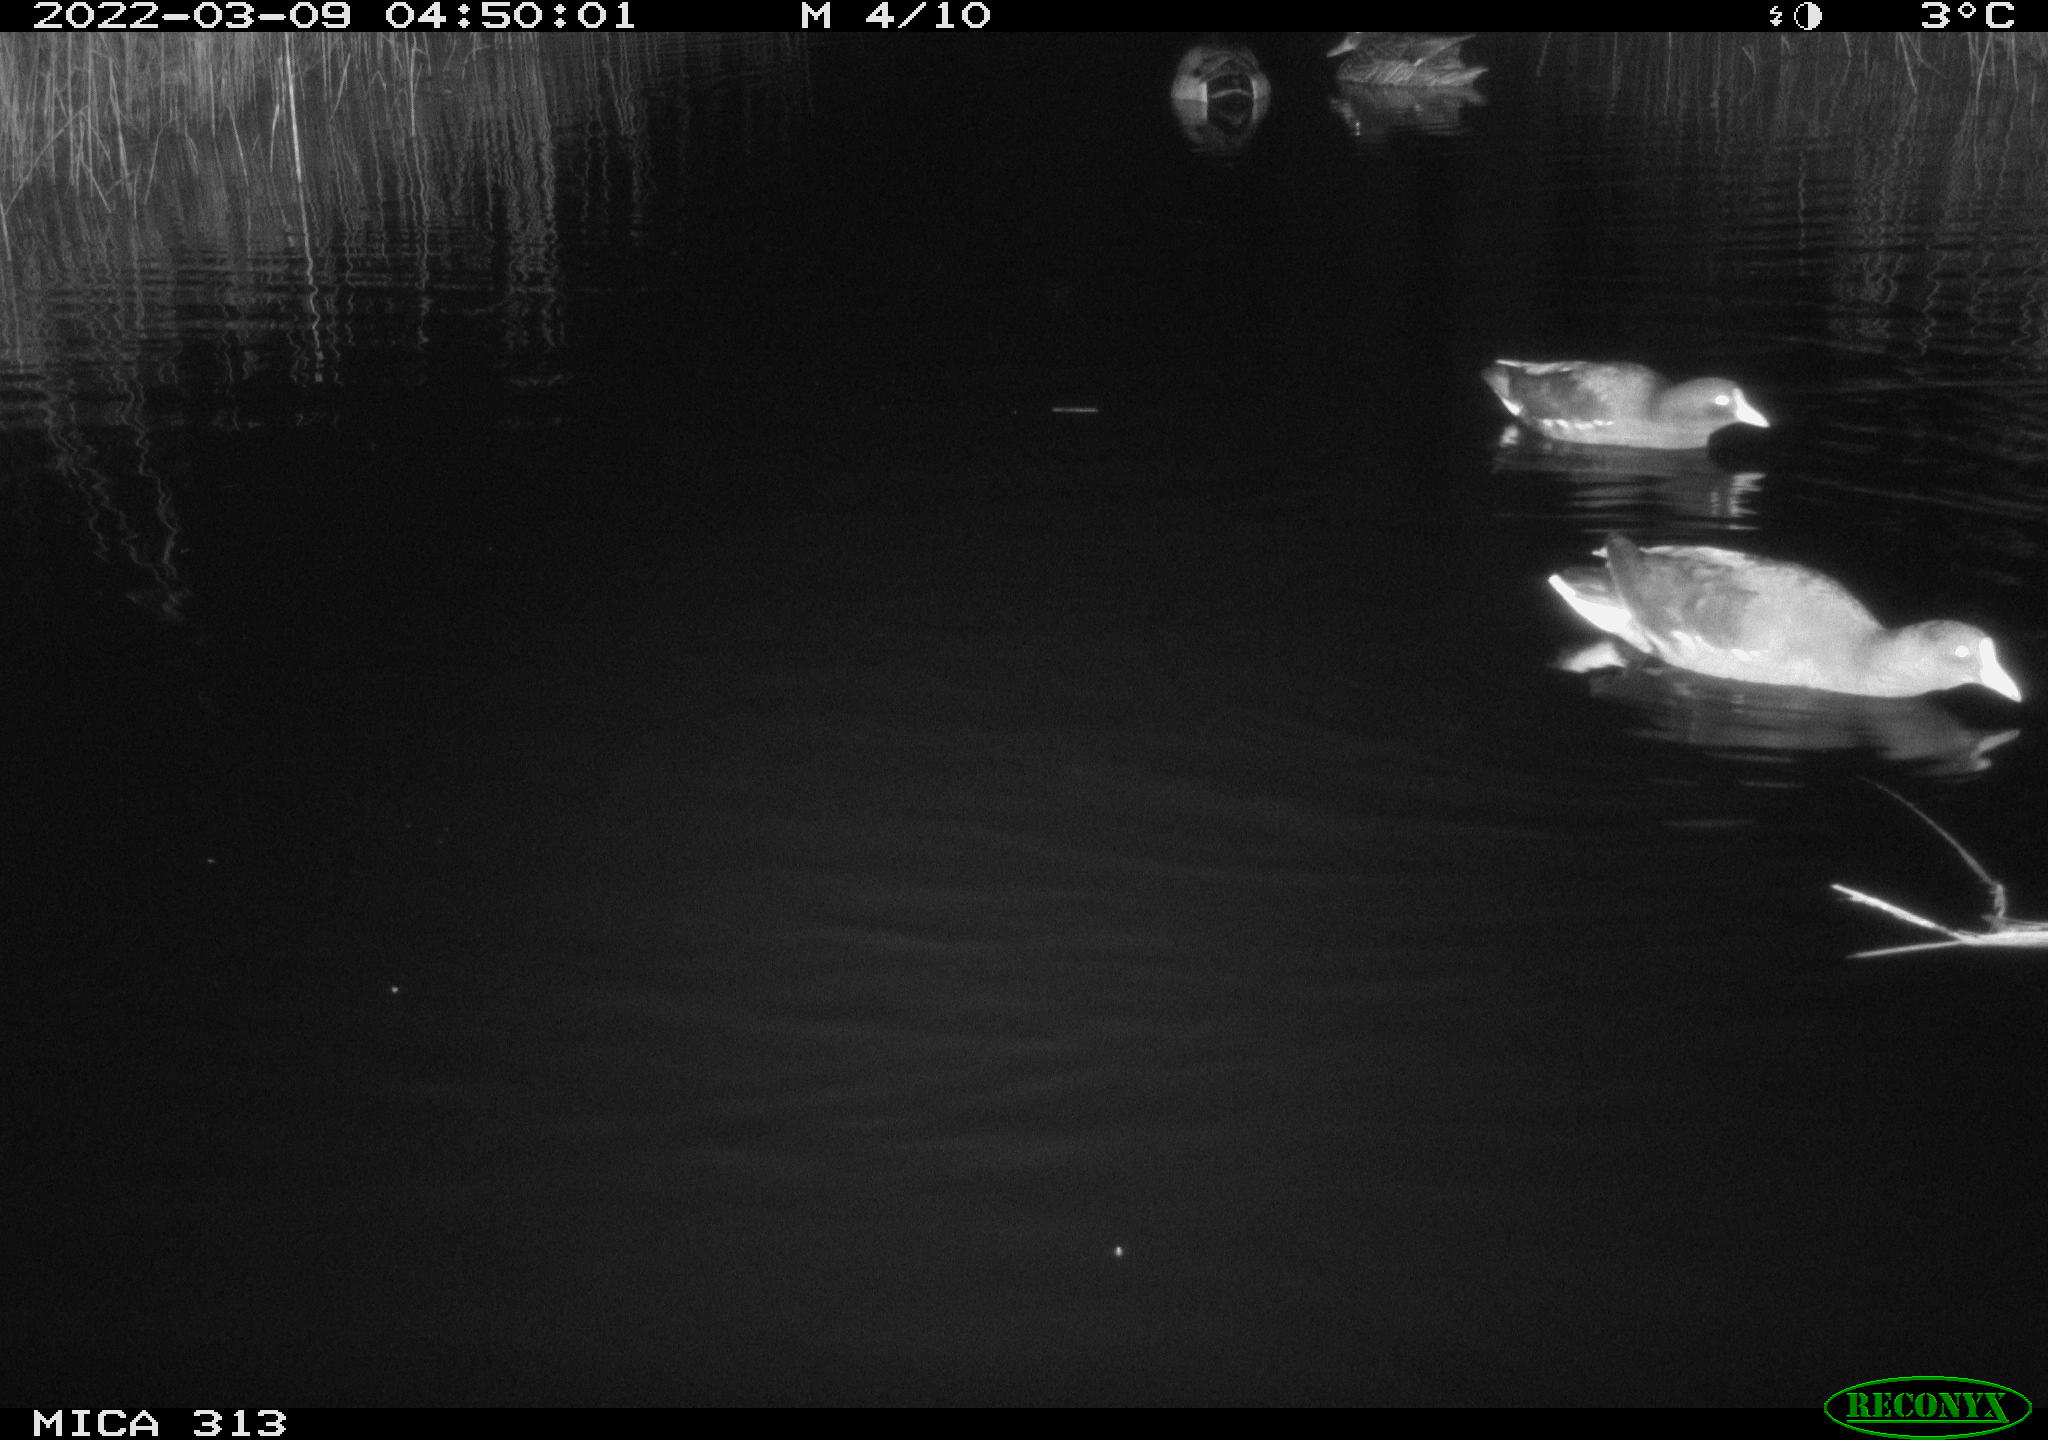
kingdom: Animalia
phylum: Chordata
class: Aves
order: Gruiformes
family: Rallidae
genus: Gallinula
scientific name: Gallinula chloropus
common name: Common moorhen
